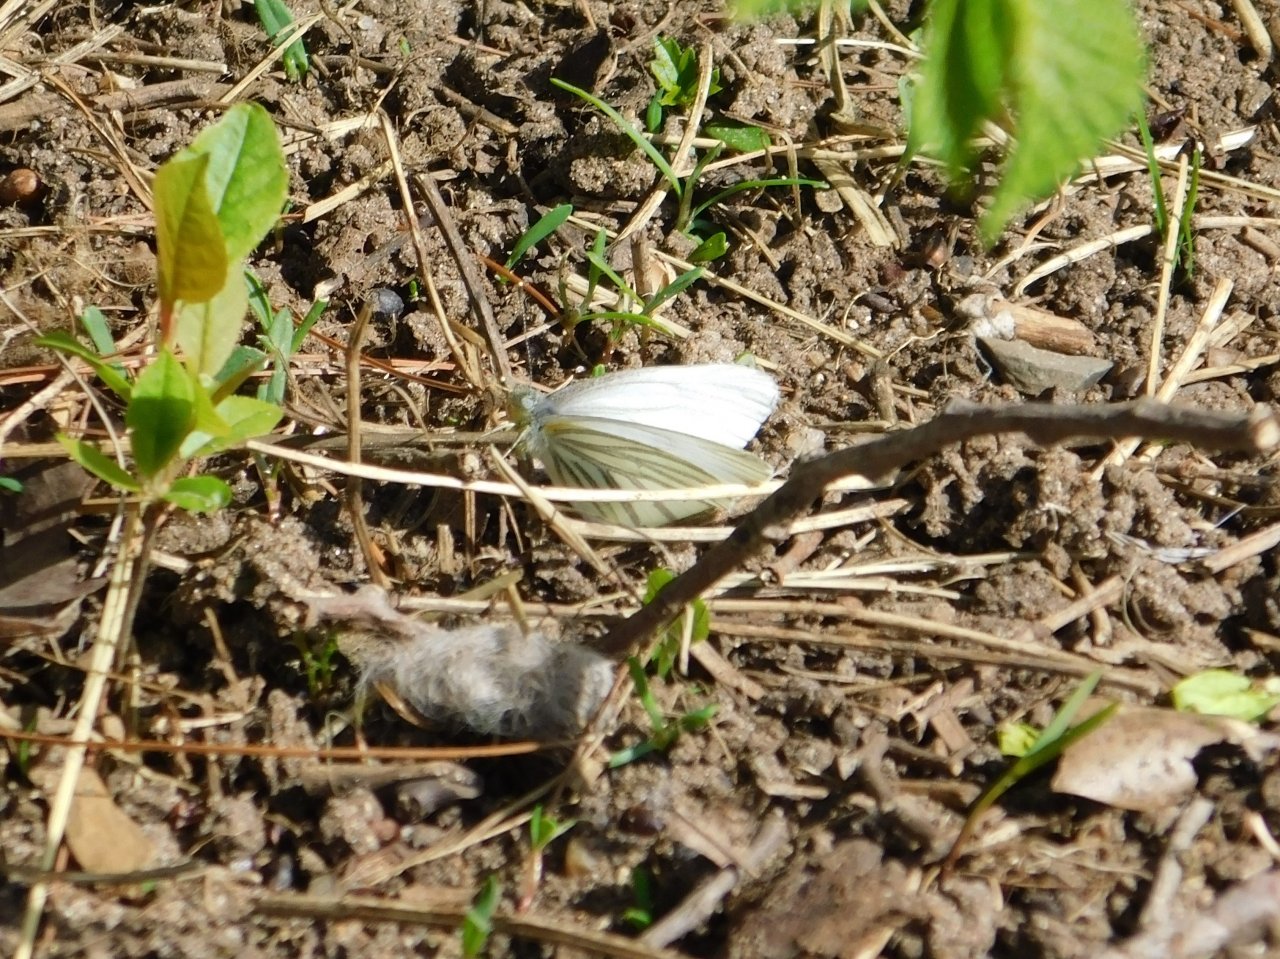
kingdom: Animalia
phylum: Arthropoda
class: Insecta
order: Lepidoptera
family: Pieridae
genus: Pieris
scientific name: Pieris oleracea
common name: Mustard White
